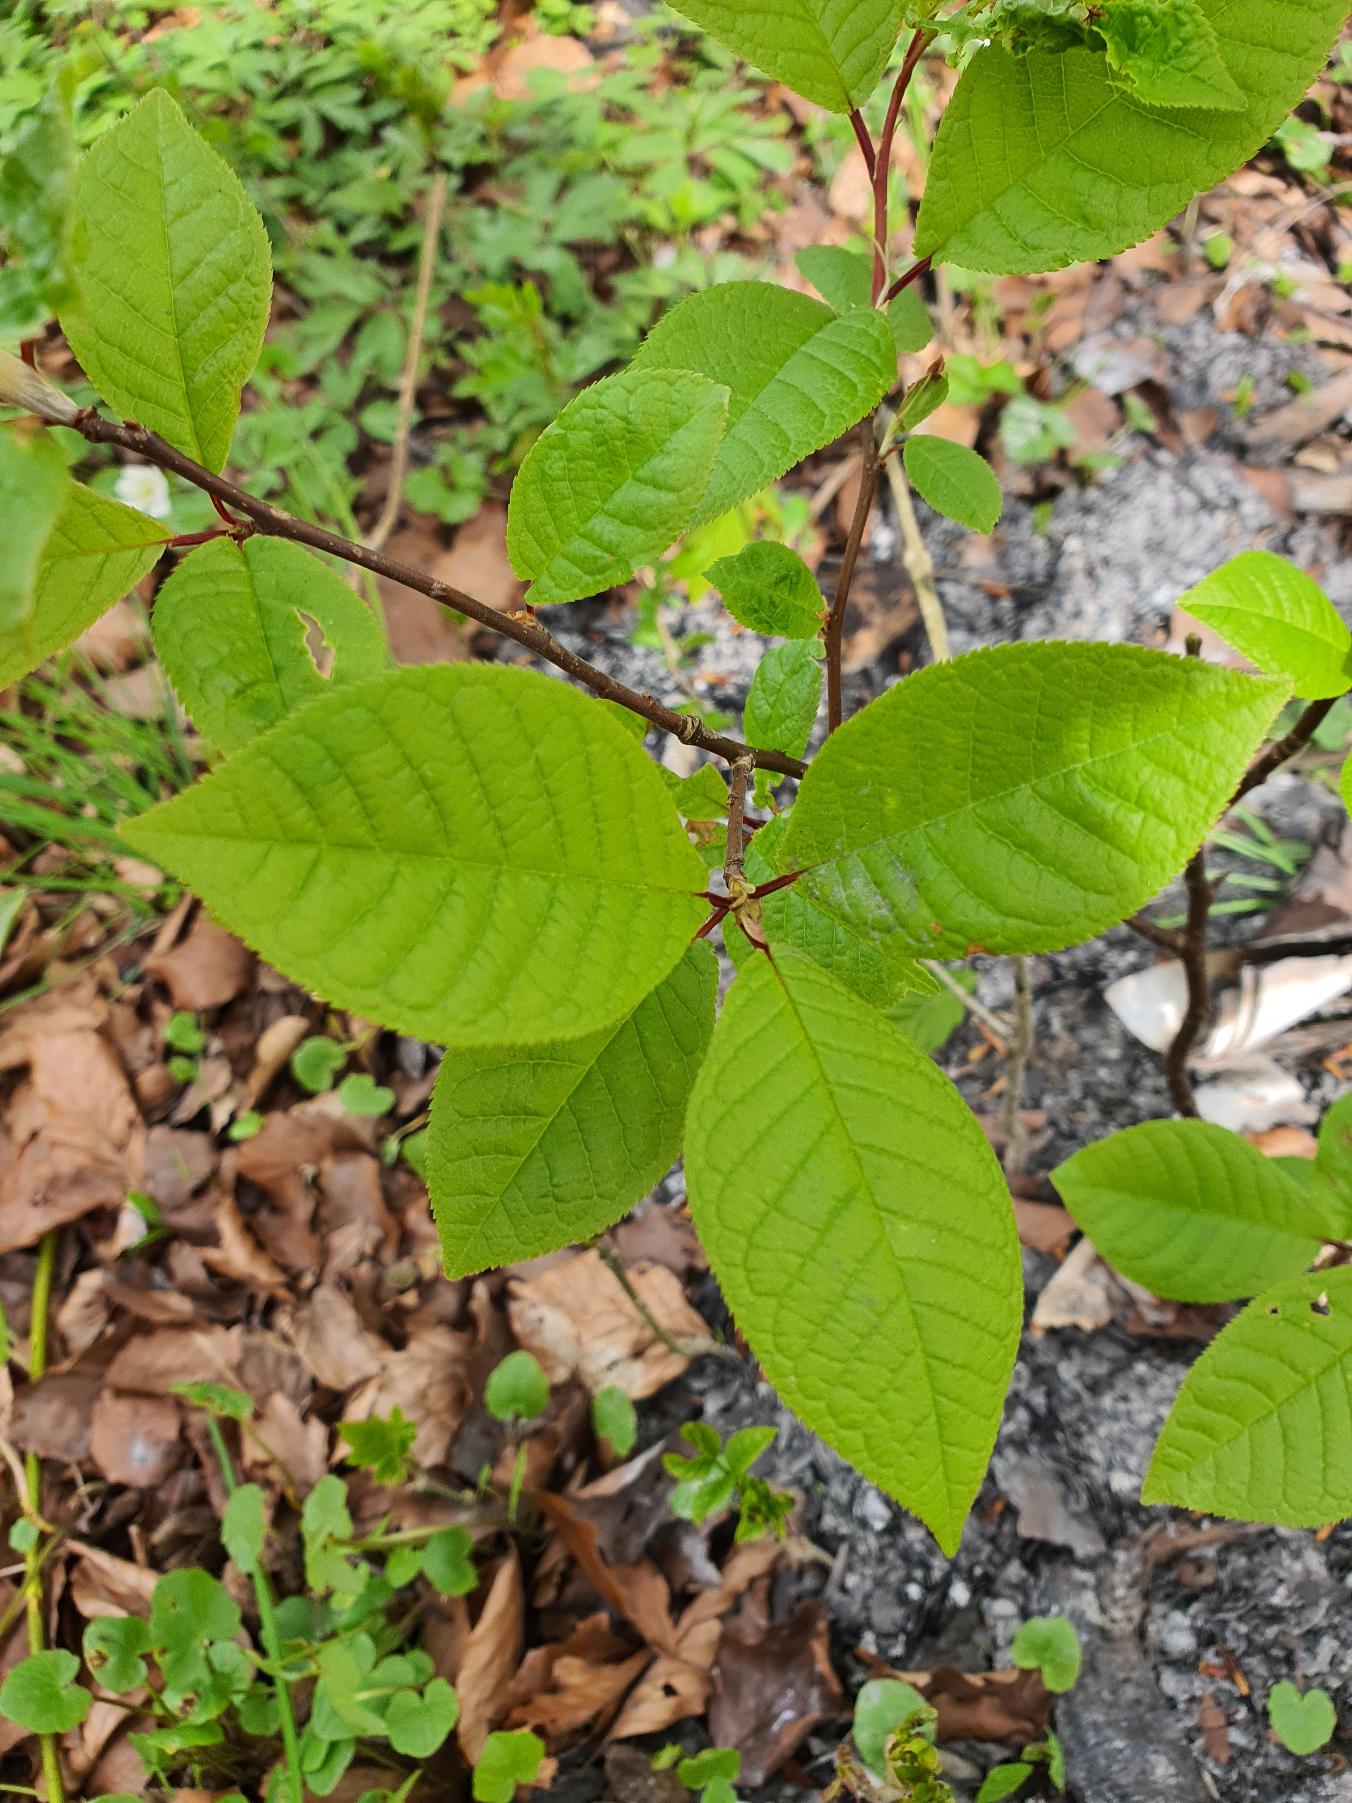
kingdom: Plantae
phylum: Tracheophyta
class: Magnoliopsida
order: Rosales
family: Rosaceae
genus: Prunus
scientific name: Prunus padus
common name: Almindelig hæg
